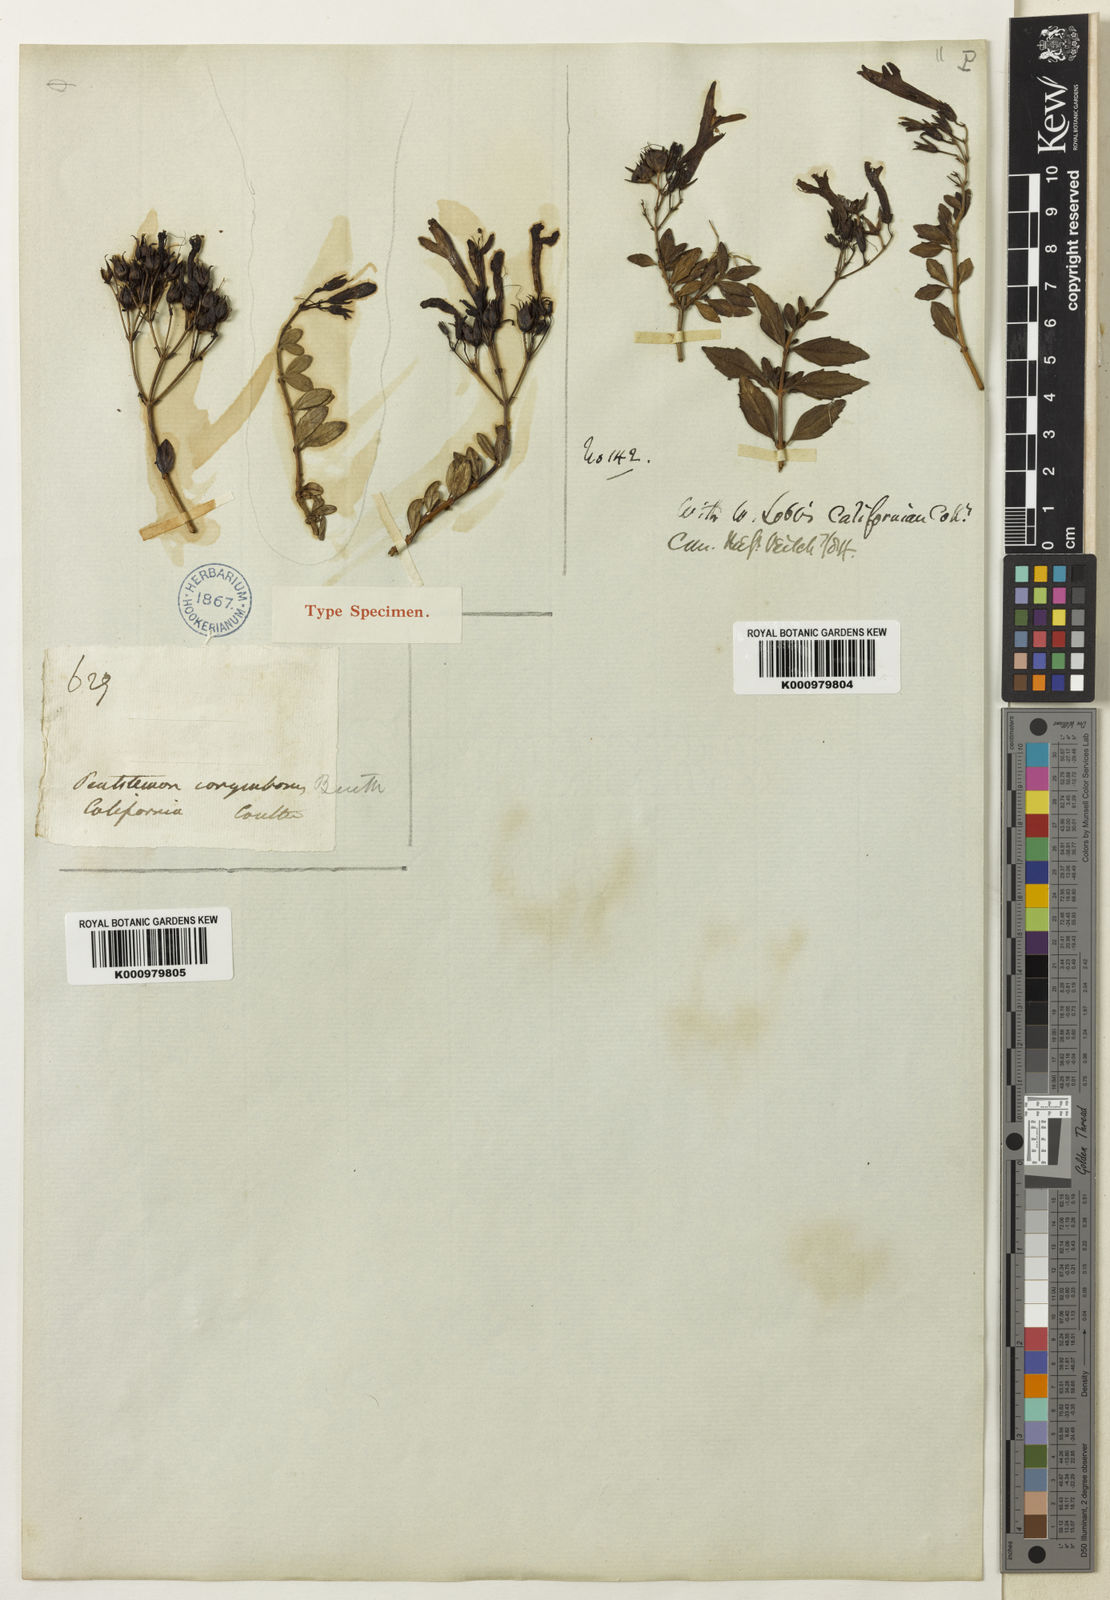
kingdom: Plantae
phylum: Tracheophyta
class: Magnoliopsida
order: Lamiales
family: Plantaginaceae
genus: Keckiella
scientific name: Keckiella corymbosa
